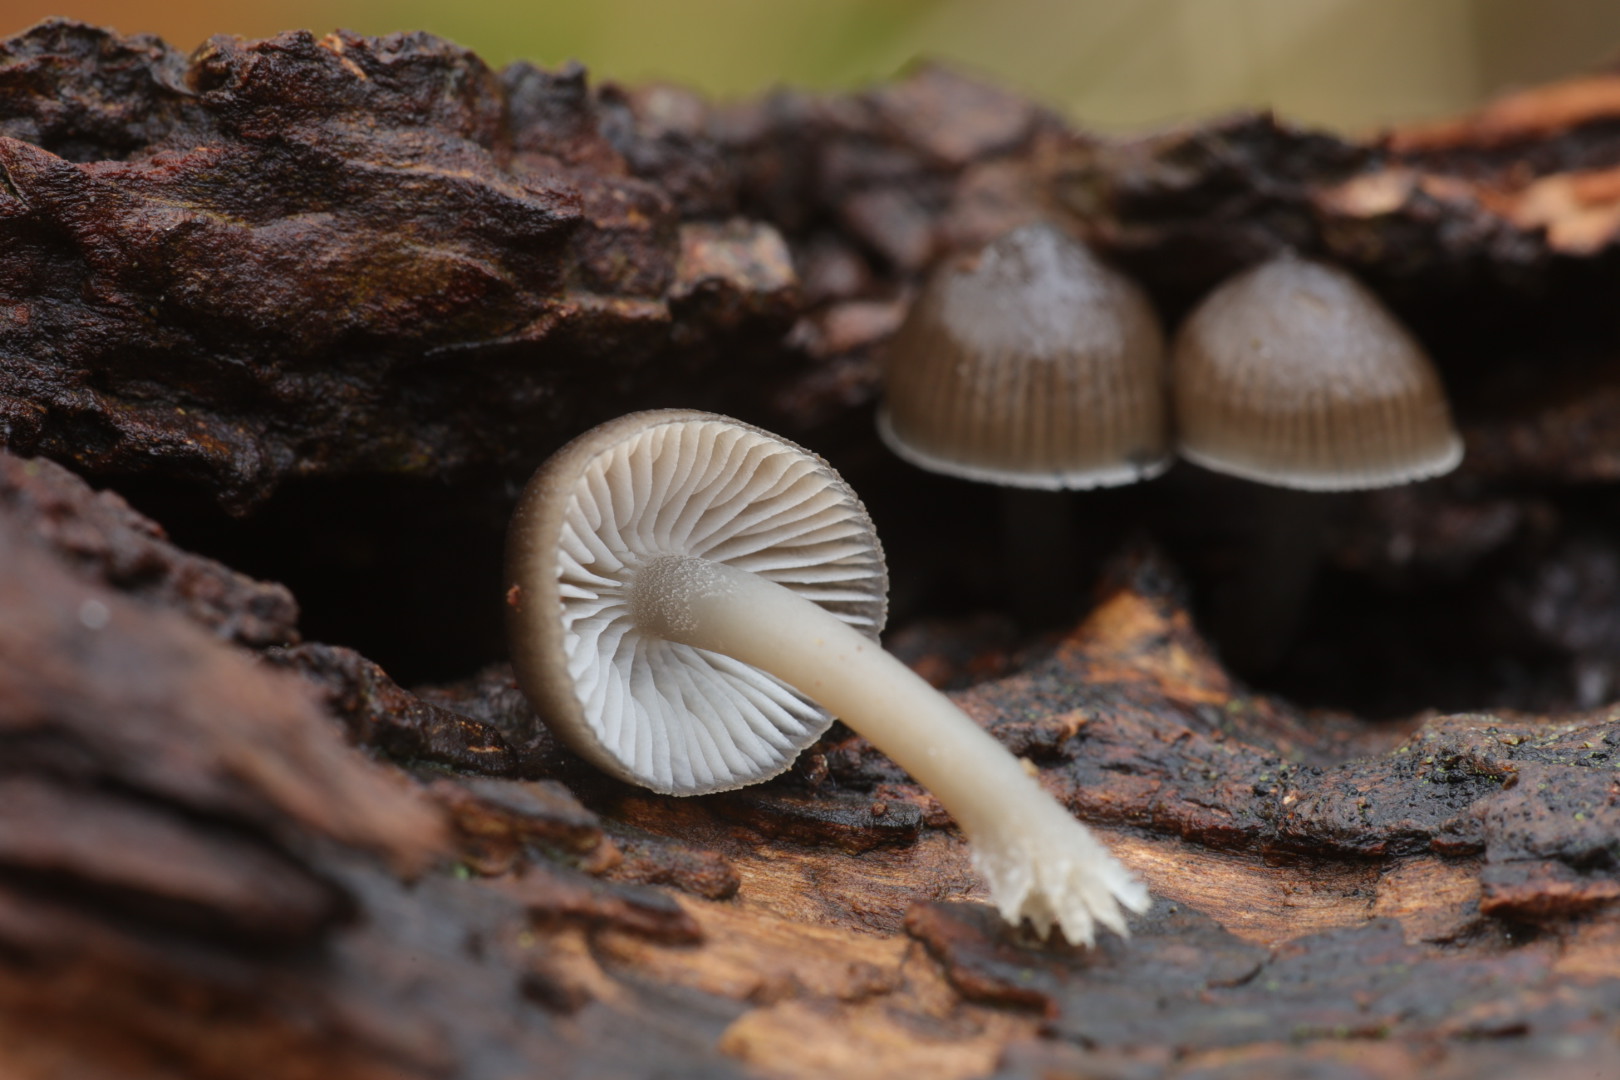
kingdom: Fungi
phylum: Basidiomycota
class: Agaricomycetes
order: Agaricales
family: Mycenaceae
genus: Mycena
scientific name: Mycena tintinnabulum
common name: vinter-huesvamp
